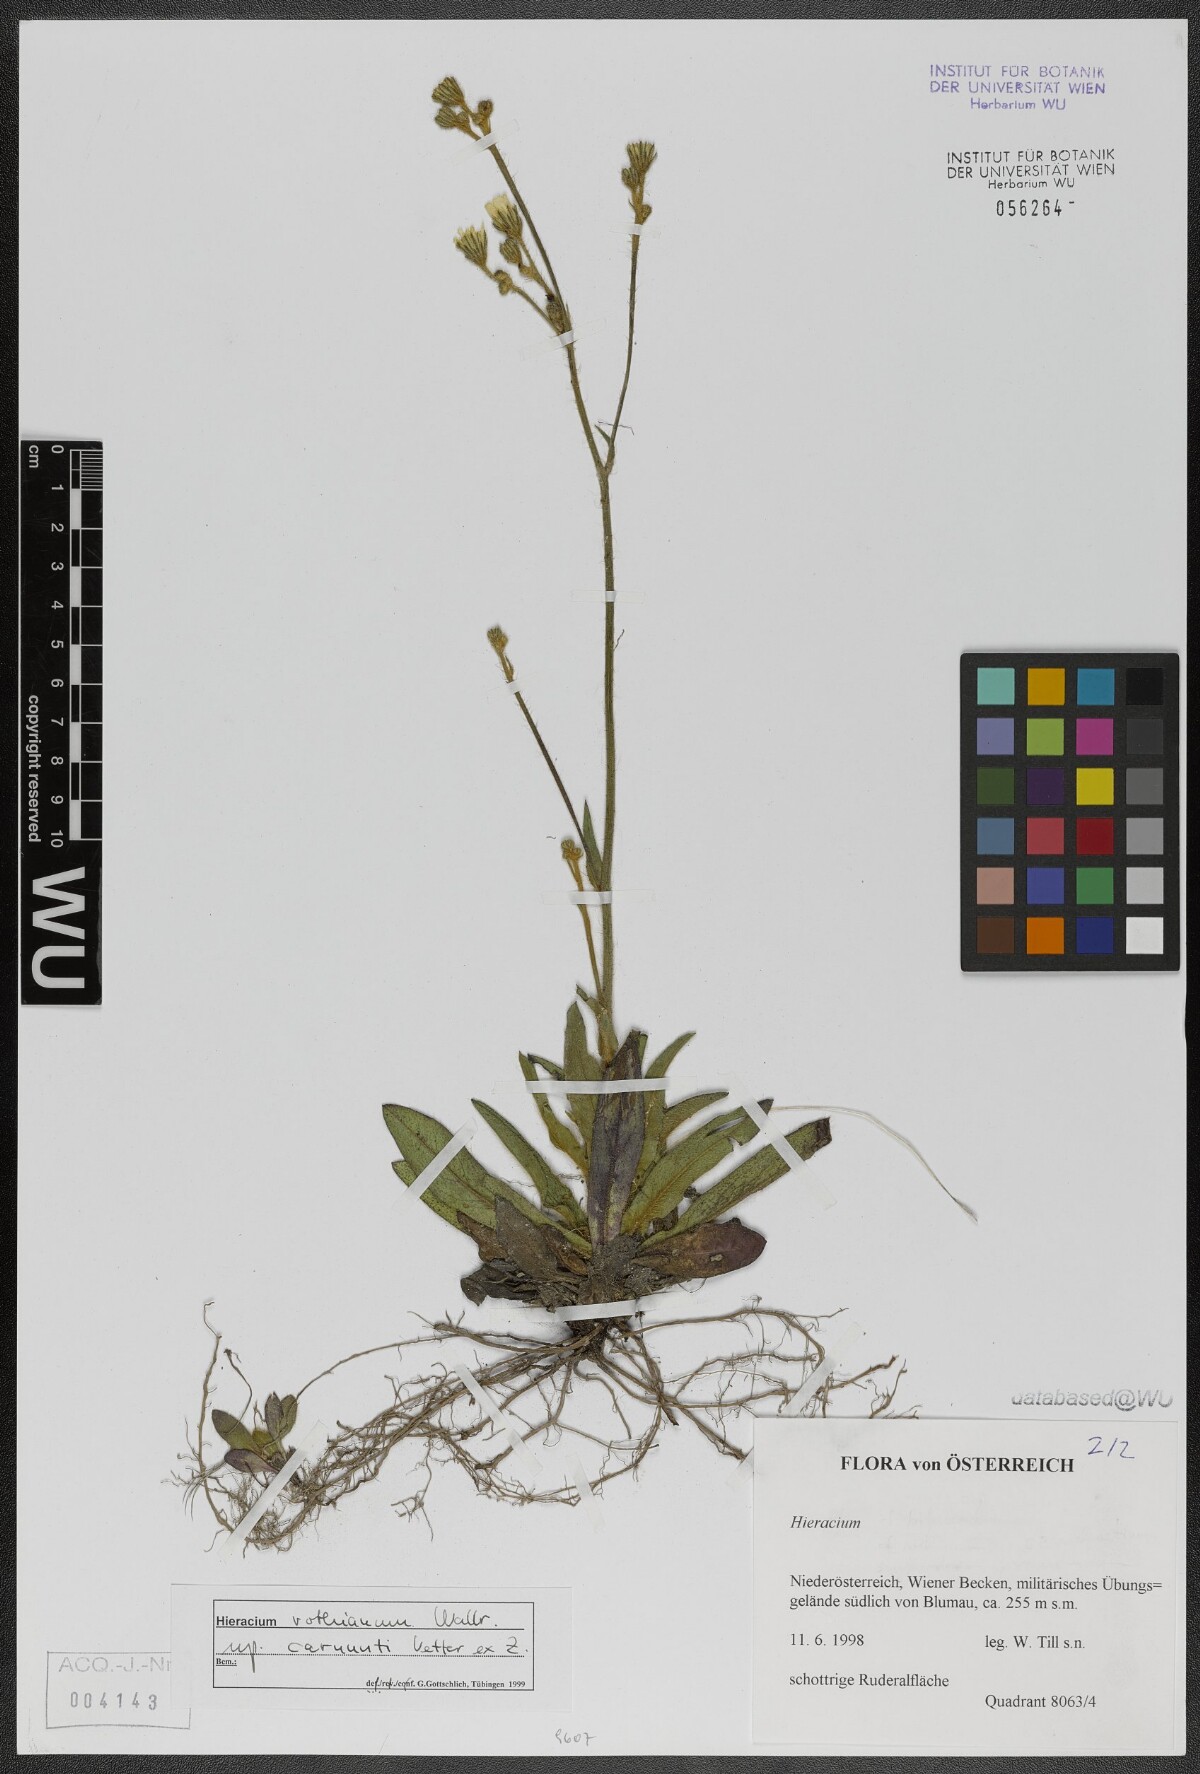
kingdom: Plantae
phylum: Tracheophyta
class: Magnoliopsida
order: Asterales
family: Asteraceae
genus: Pilosella
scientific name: Pilosella rothiana
